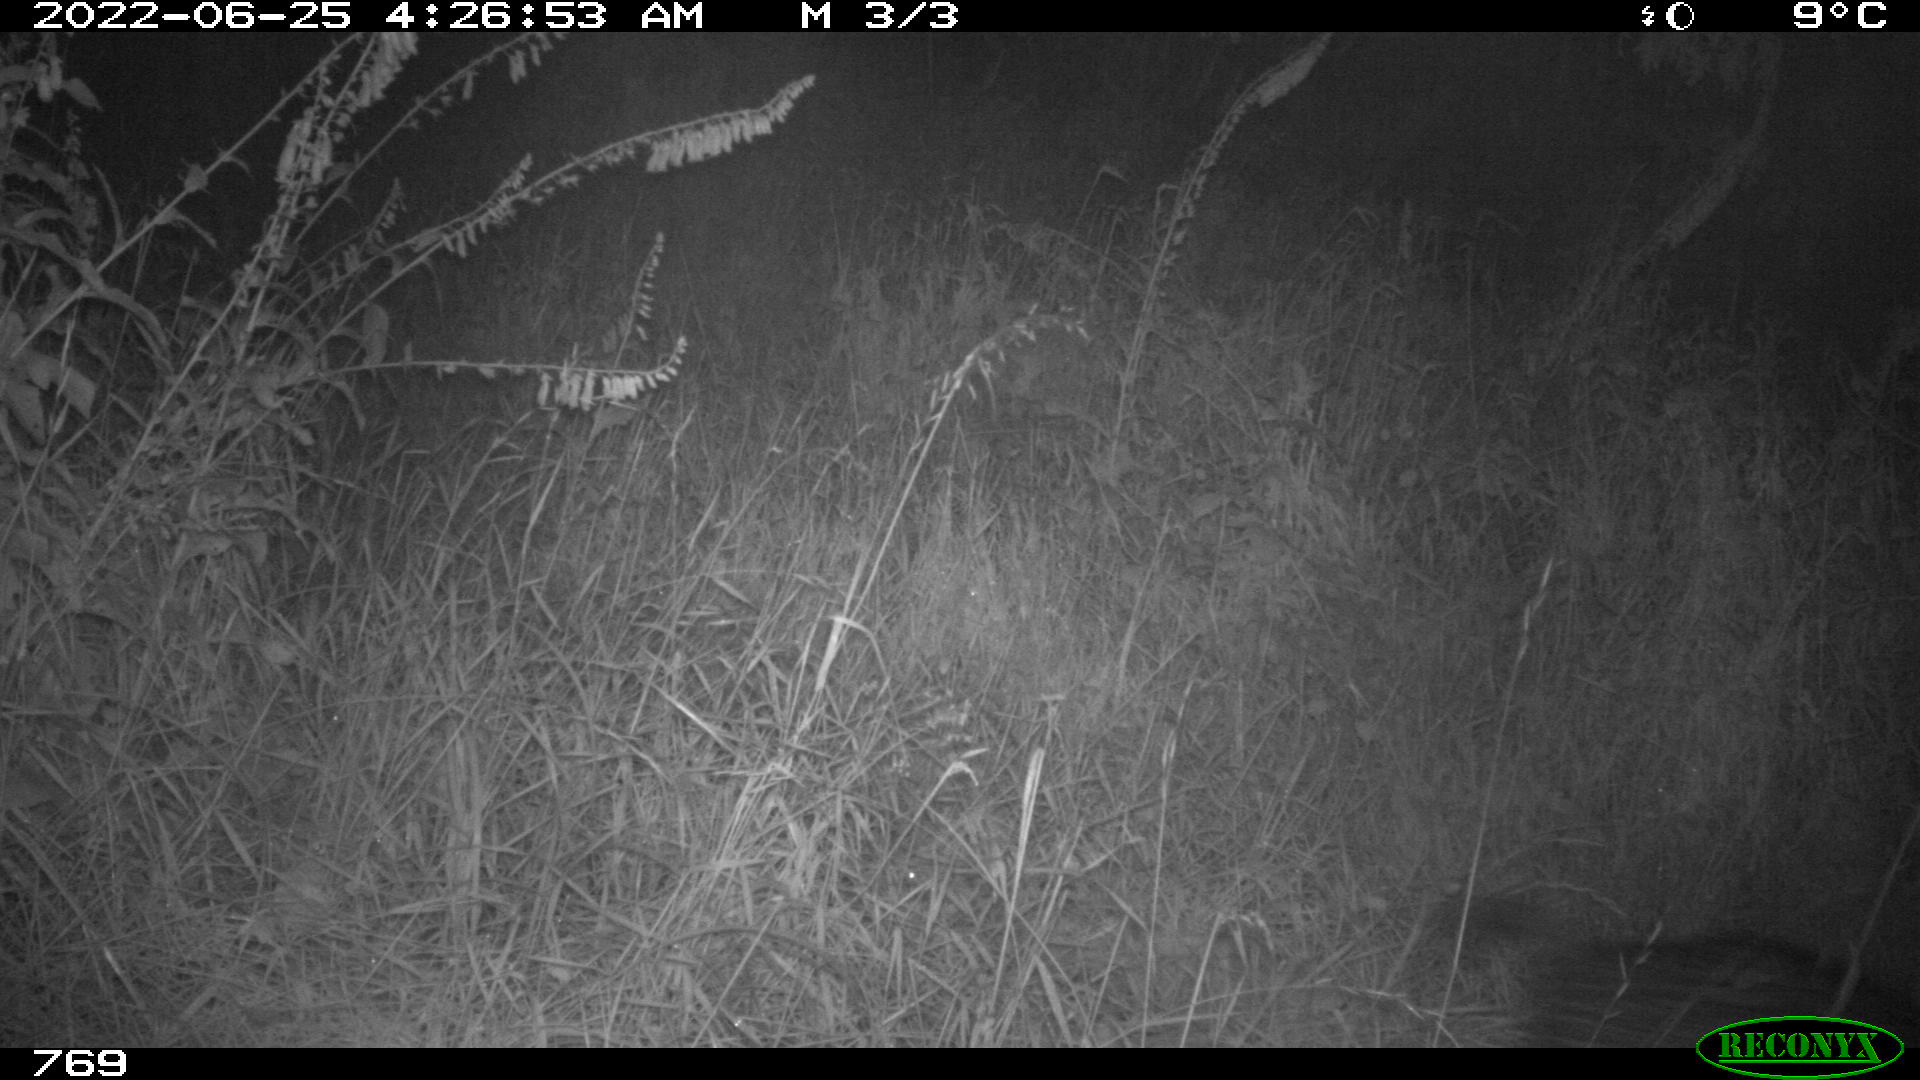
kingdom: Animalia
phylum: Chordata
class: Mammalia
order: Artiodactyla
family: Suidae
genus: Sus
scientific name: Sus scrofa
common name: Wild boar
